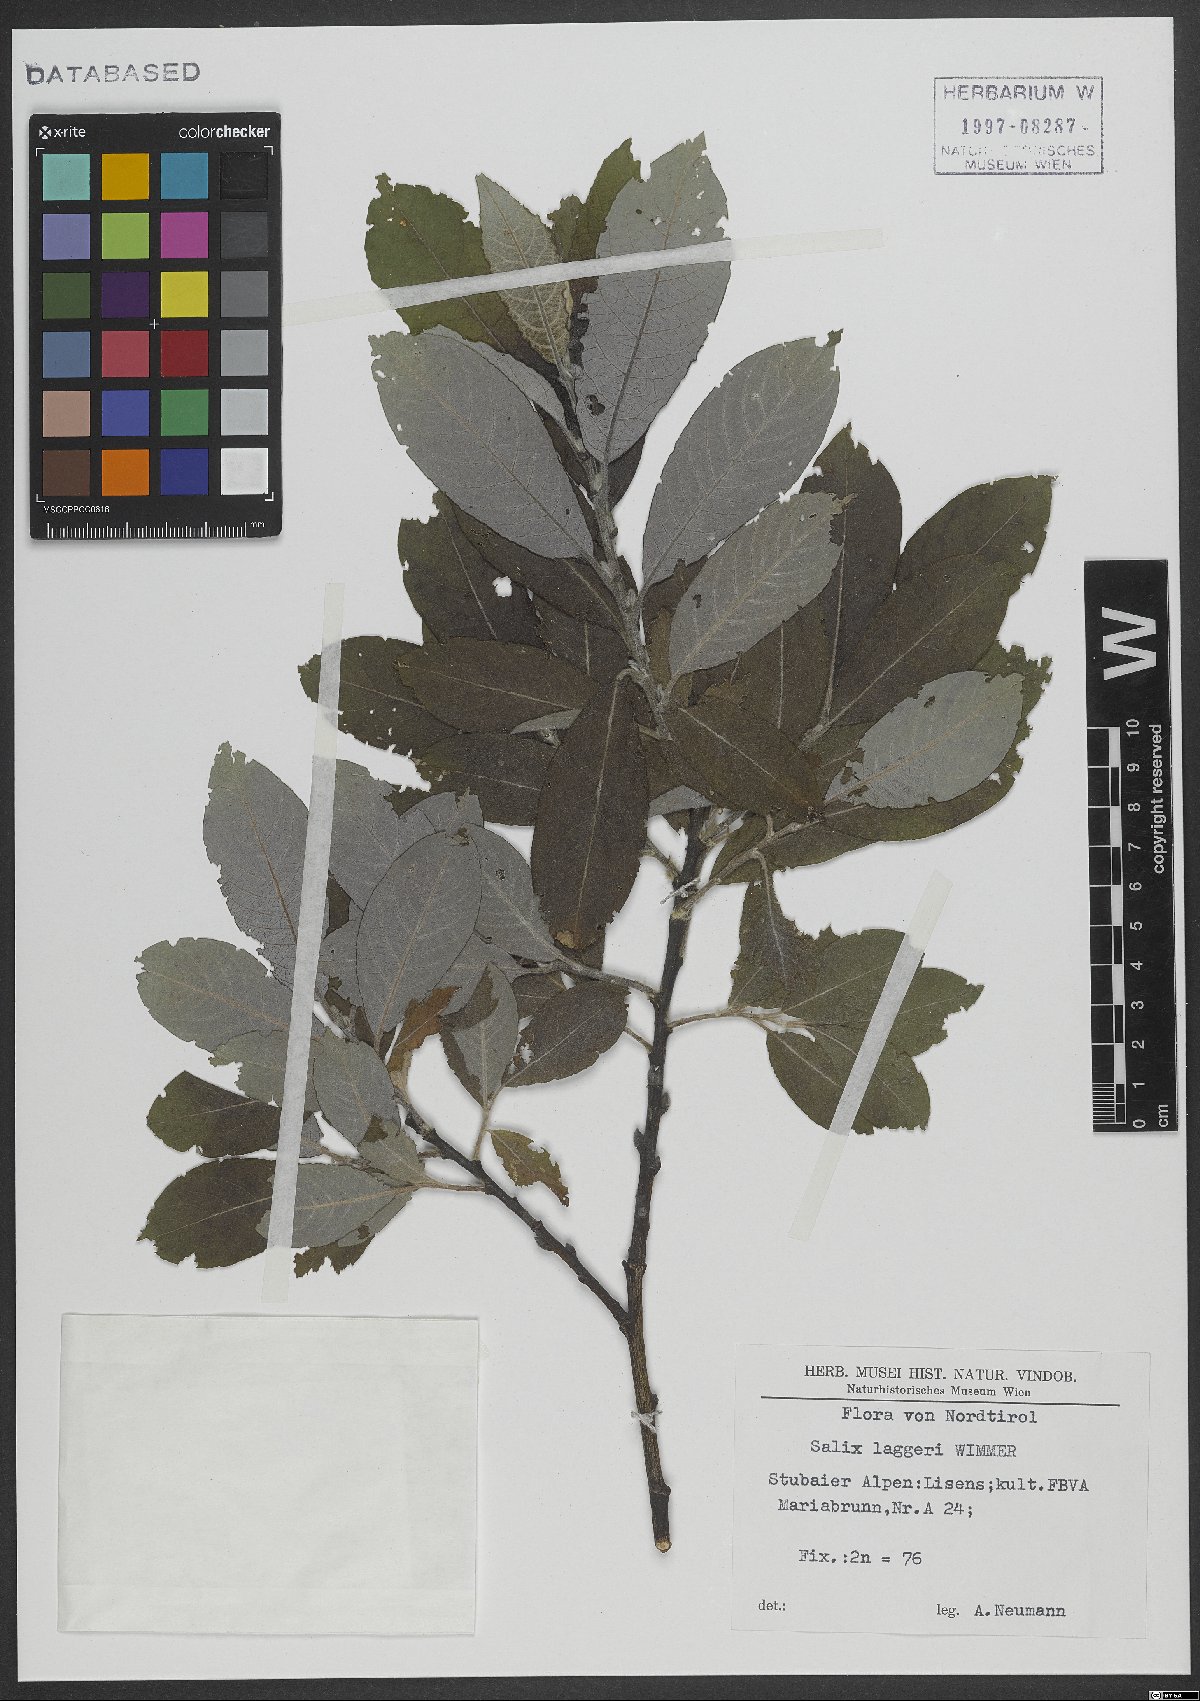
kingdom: Plantae
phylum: Tracheophyta
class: Magnoliopsida
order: Malpighiales
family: Salicaceae
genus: Salix
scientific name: Salix laggeri
